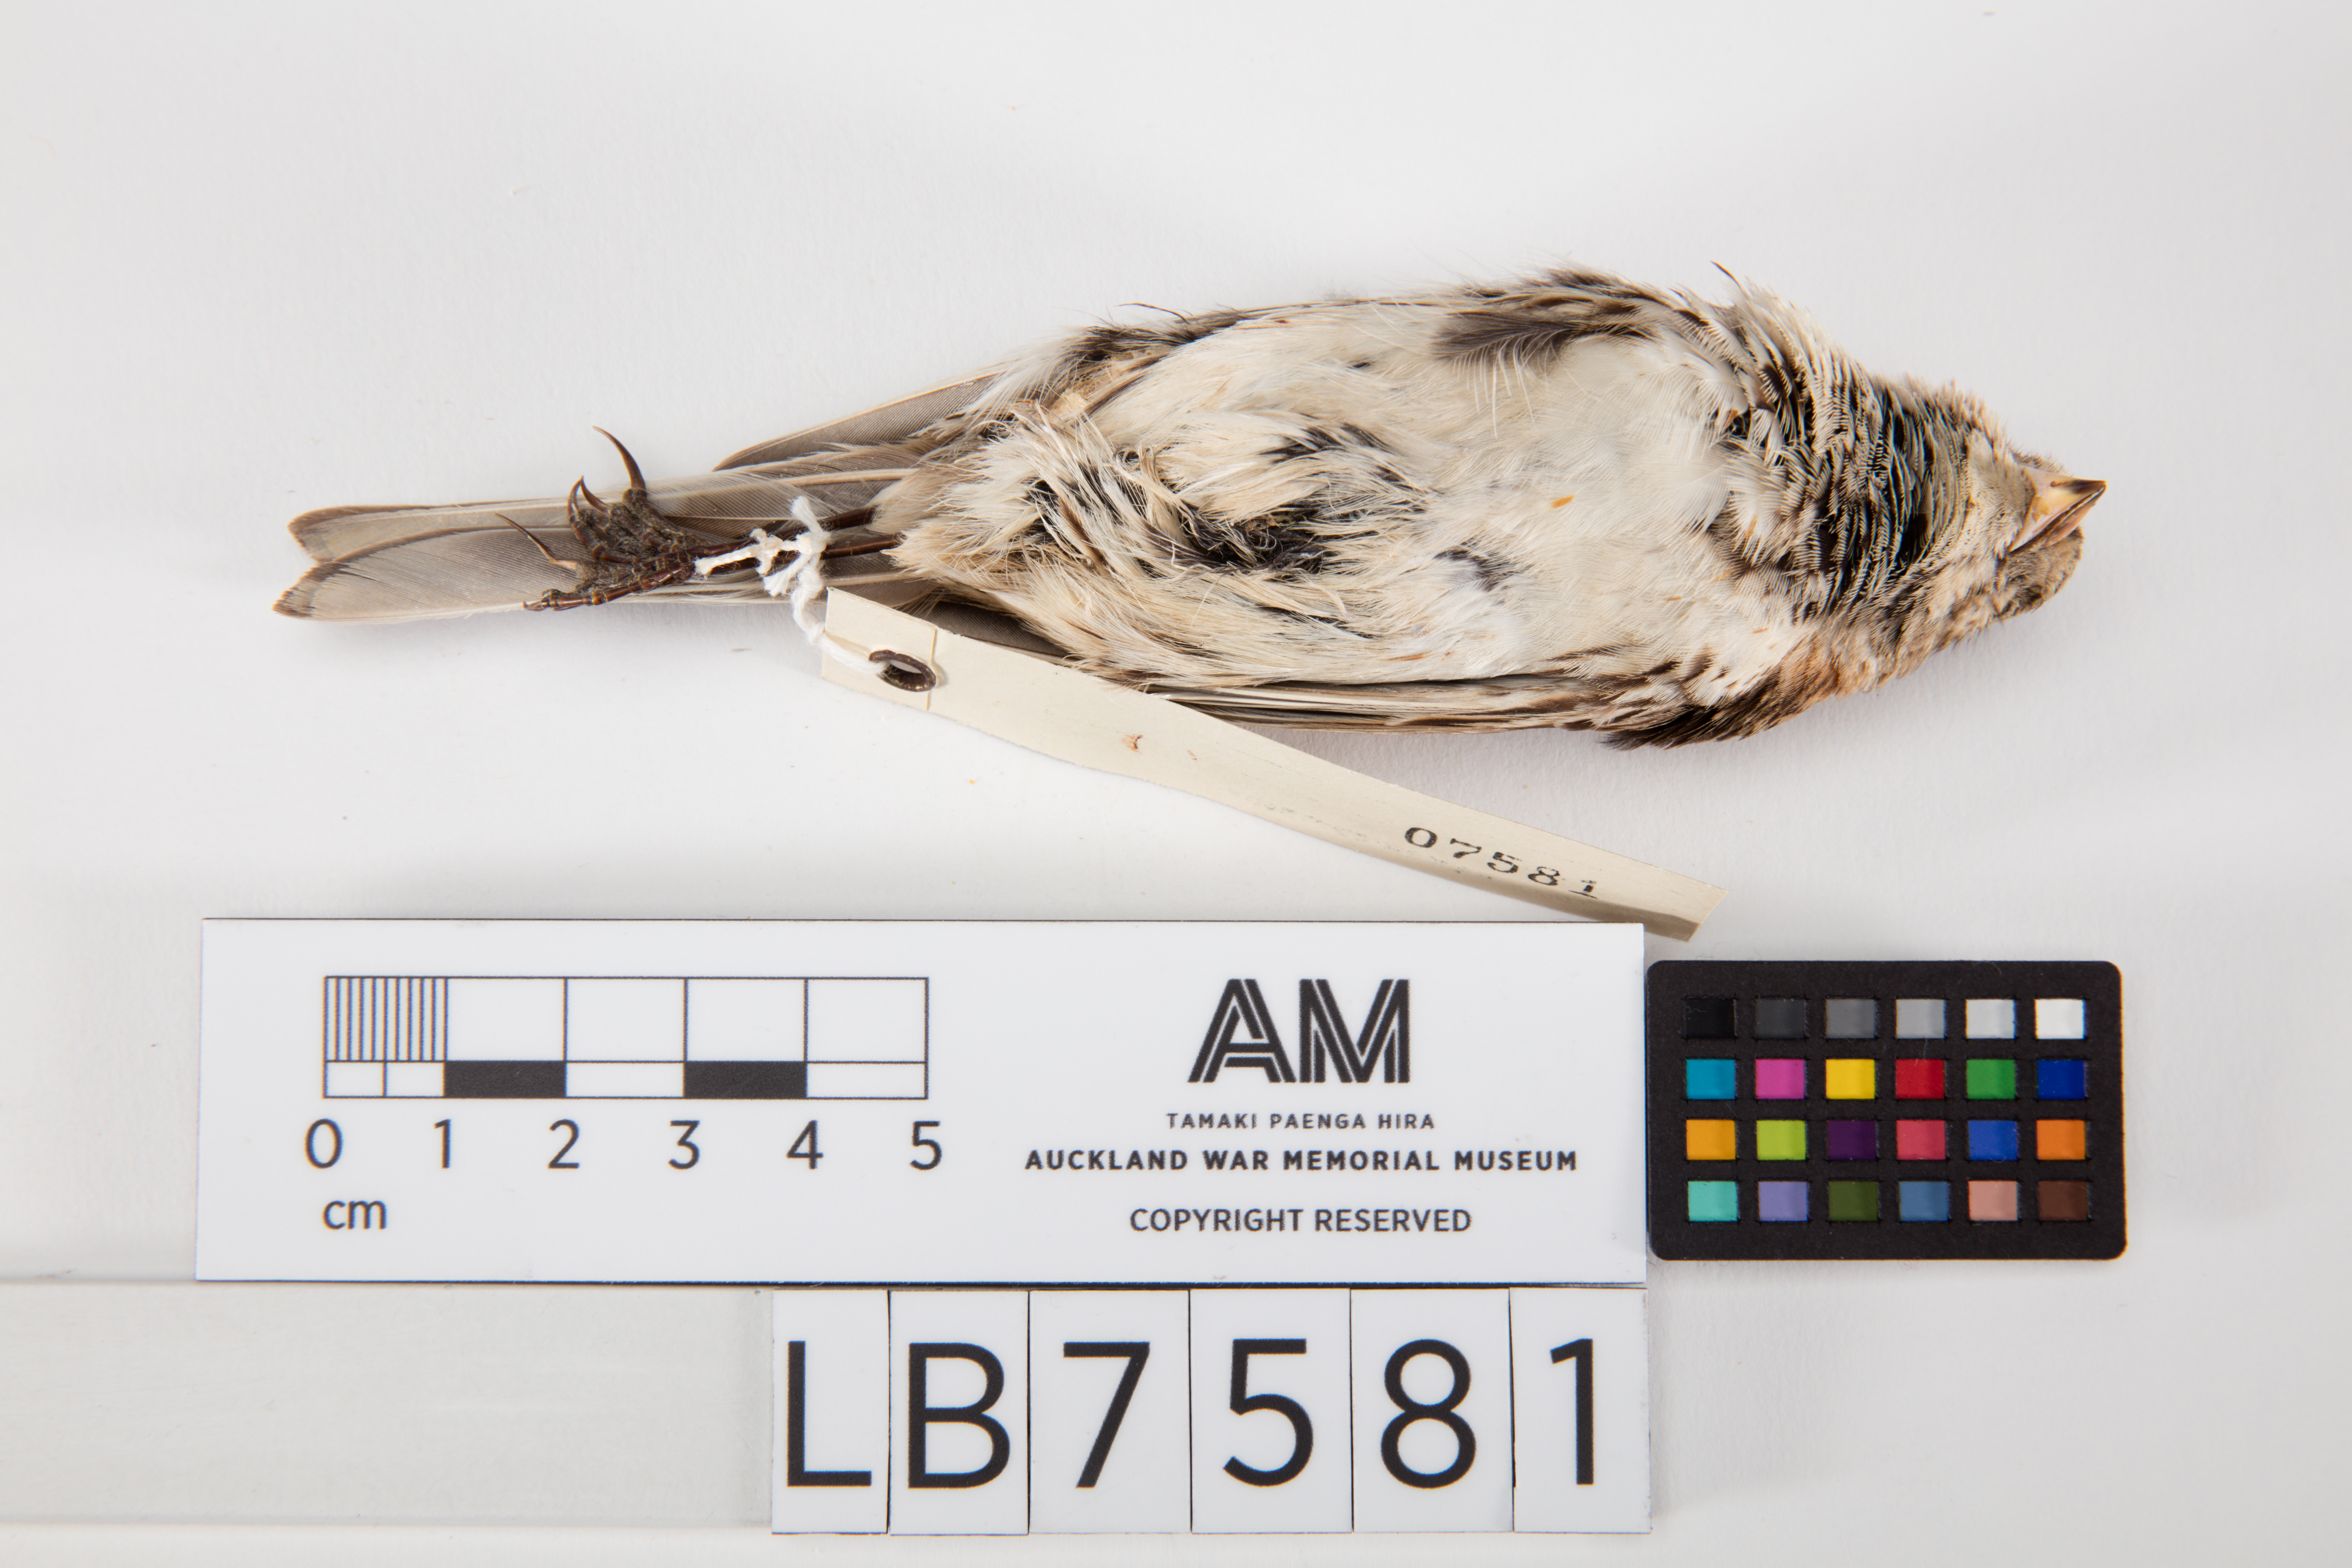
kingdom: Animalia
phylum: Chordata
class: Aves
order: Passeriformes
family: Calcariidae
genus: Calcarius
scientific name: Calcarius lapponicus
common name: Lapland longspur
